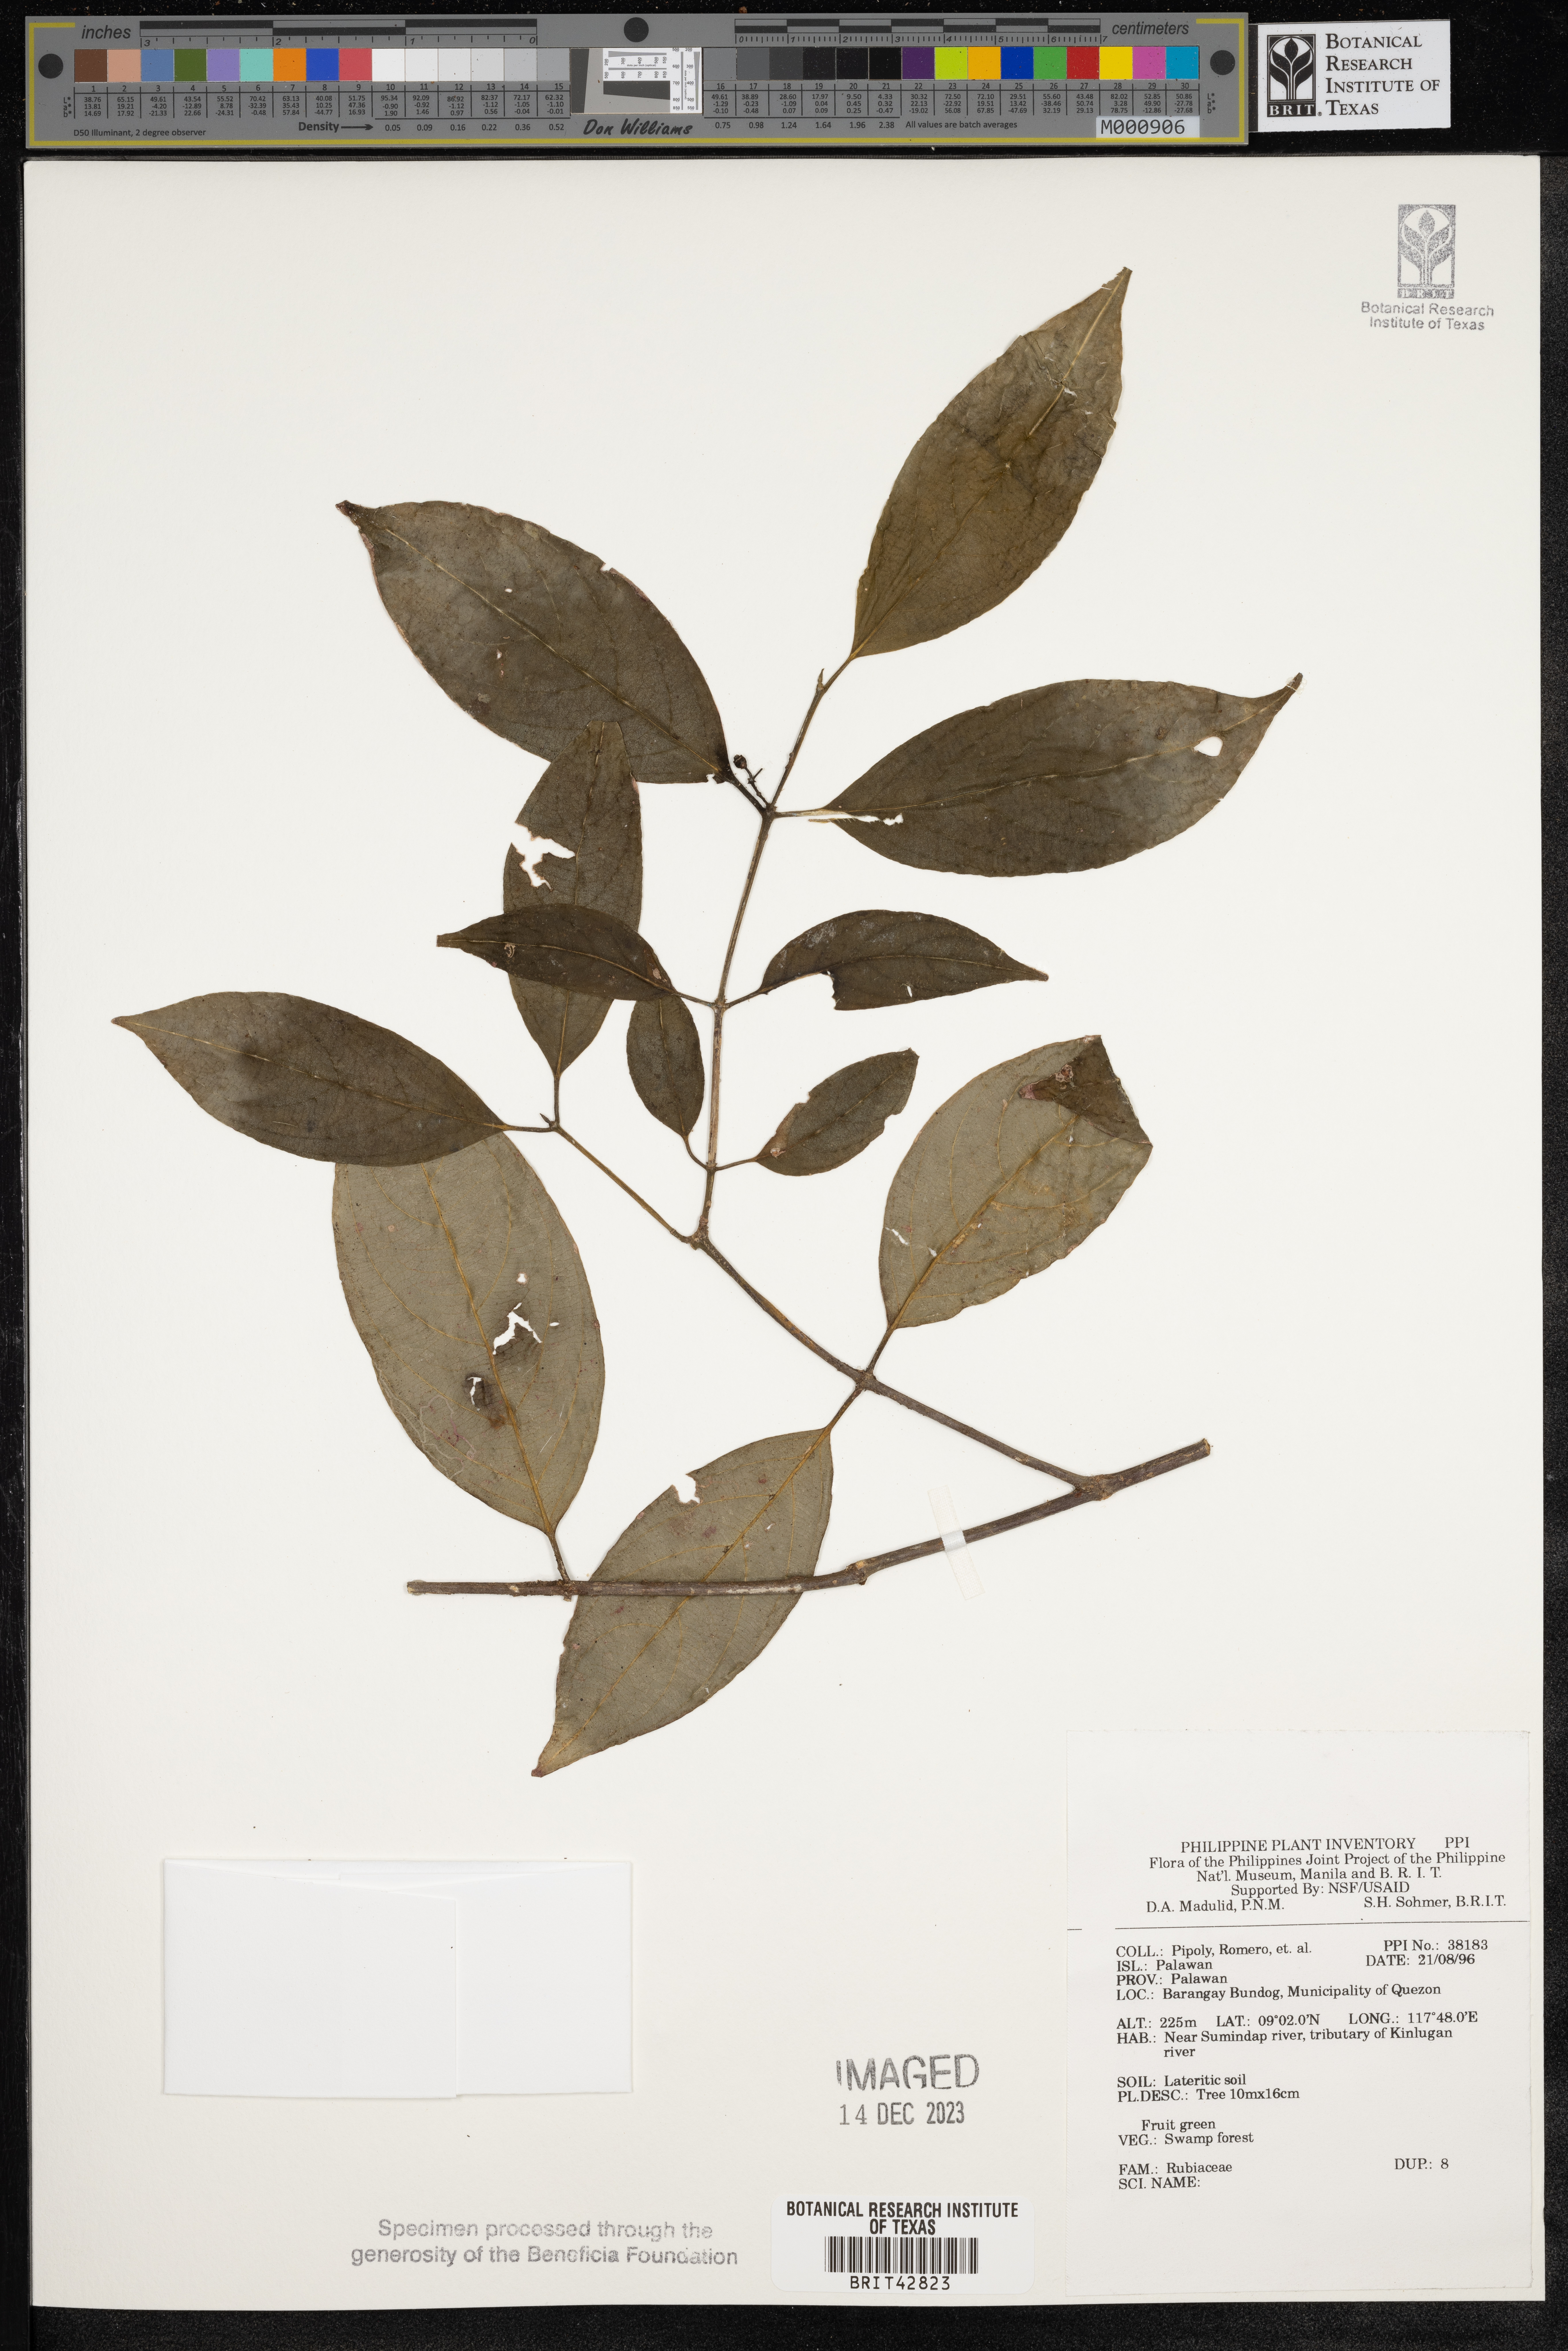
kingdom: Plantae
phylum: Tracheophyta
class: Magnoliopsida
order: Gentianales
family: Rubiaceae
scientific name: Rubiaceae
